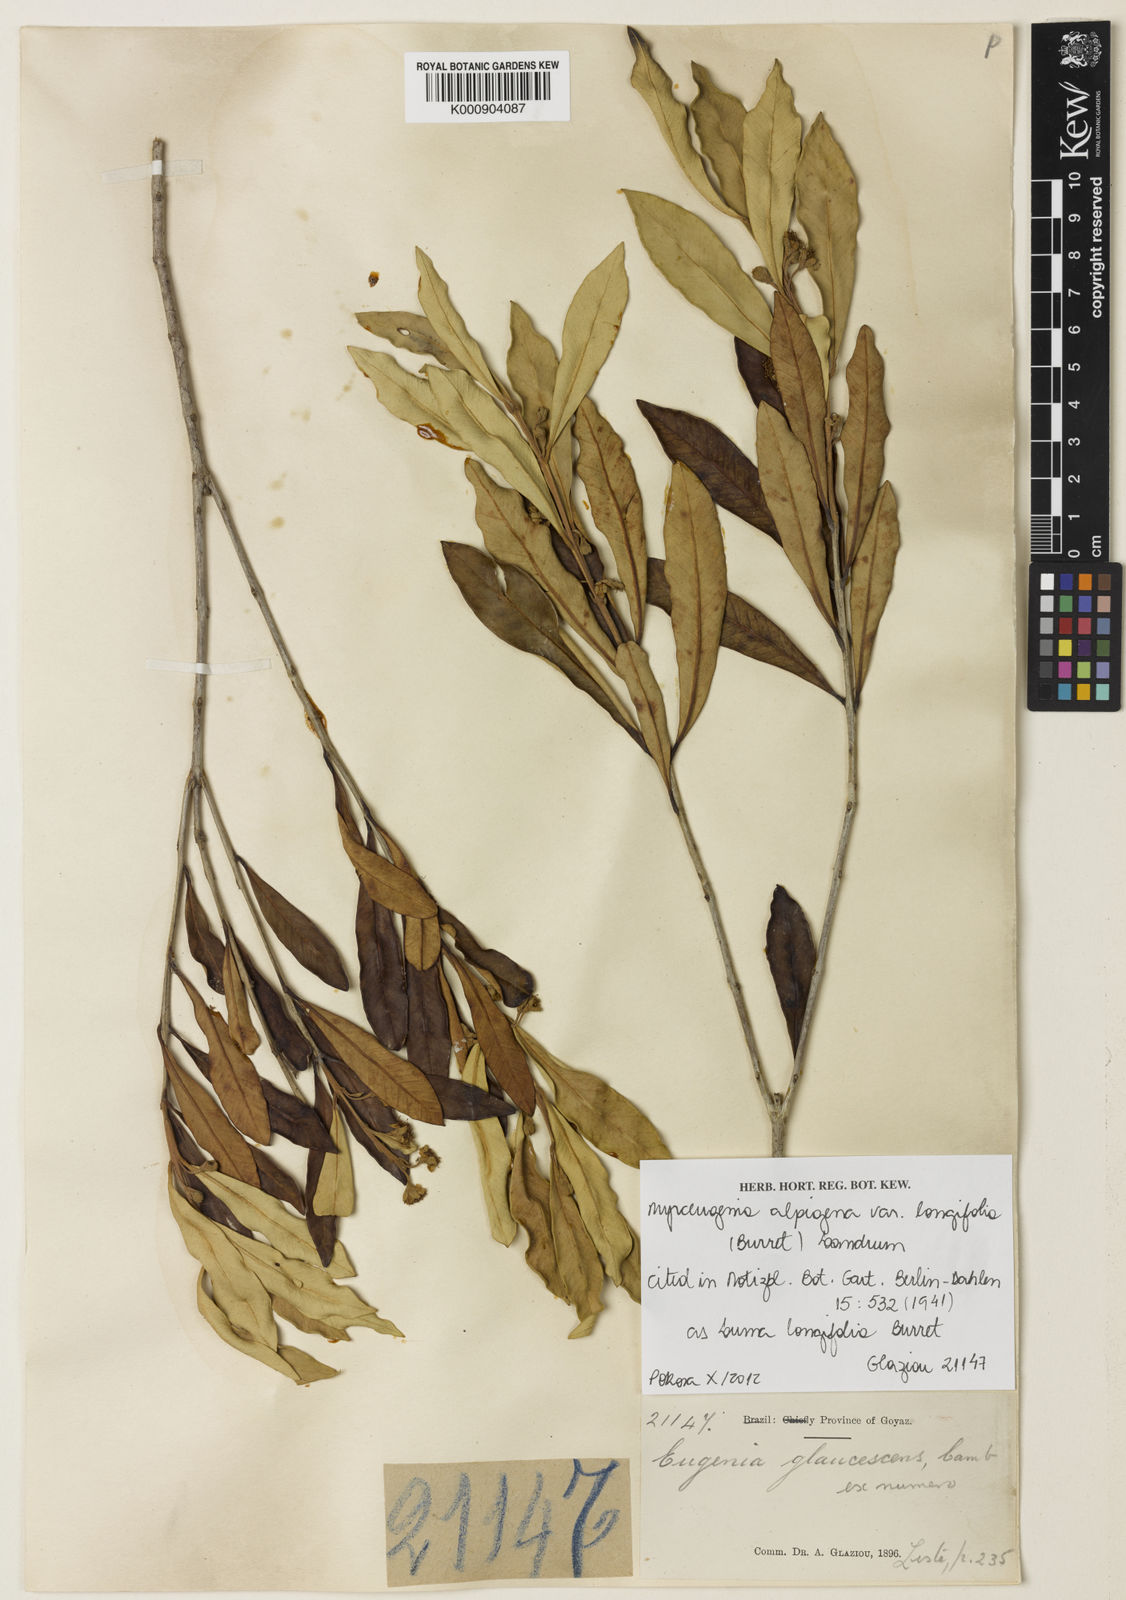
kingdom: Plantae
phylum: Tracheophyta
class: Magnoliopsida
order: Myrtales
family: Myrtaceae
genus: Myrceugenia
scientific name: Myrceugenia alpigena
